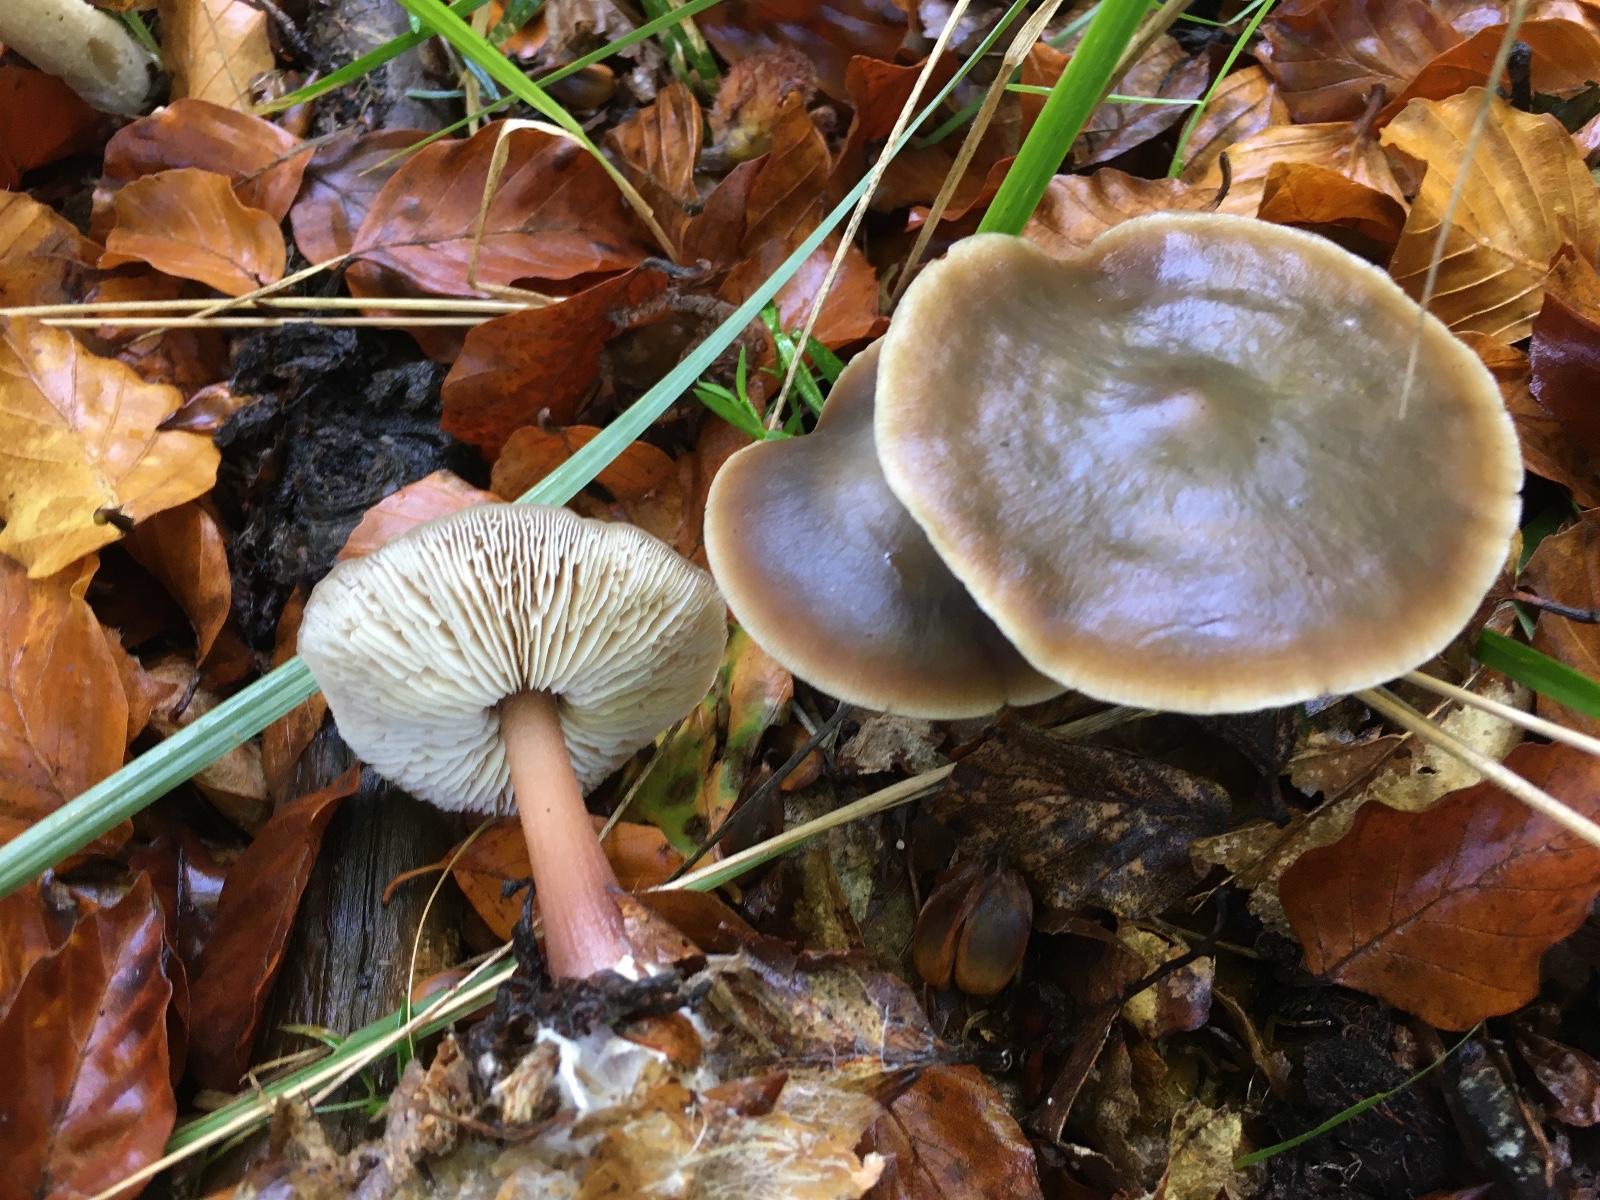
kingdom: Fungi
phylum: Basidiomycota
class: Agaricomycetes
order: Agaricales
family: Omphalotaceae
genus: Rhodocollybia
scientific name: Rhodocollybia asema
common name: horngrå fladhat
